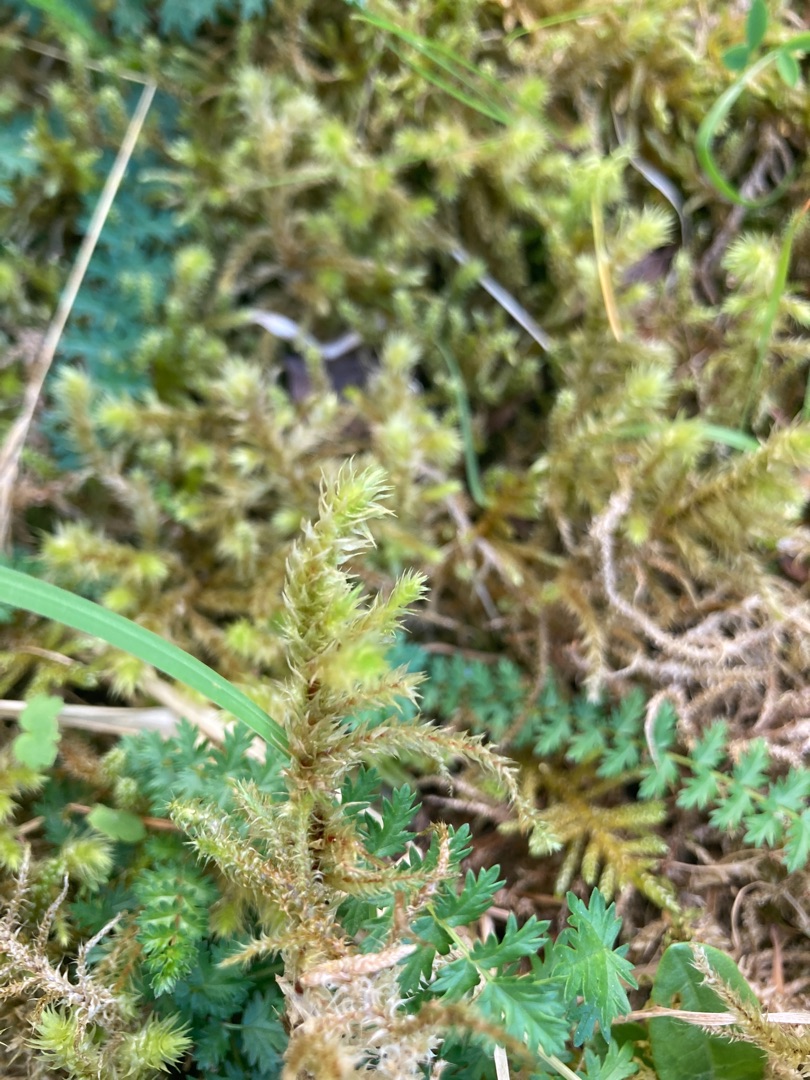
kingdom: Plantae
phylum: Bryophyta
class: Bryopsida
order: Hypnales
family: Hylocomiaceae
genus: Hylocomiadelphus
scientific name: Hylocomiadelphus triquetrus
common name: Stor kransemos
